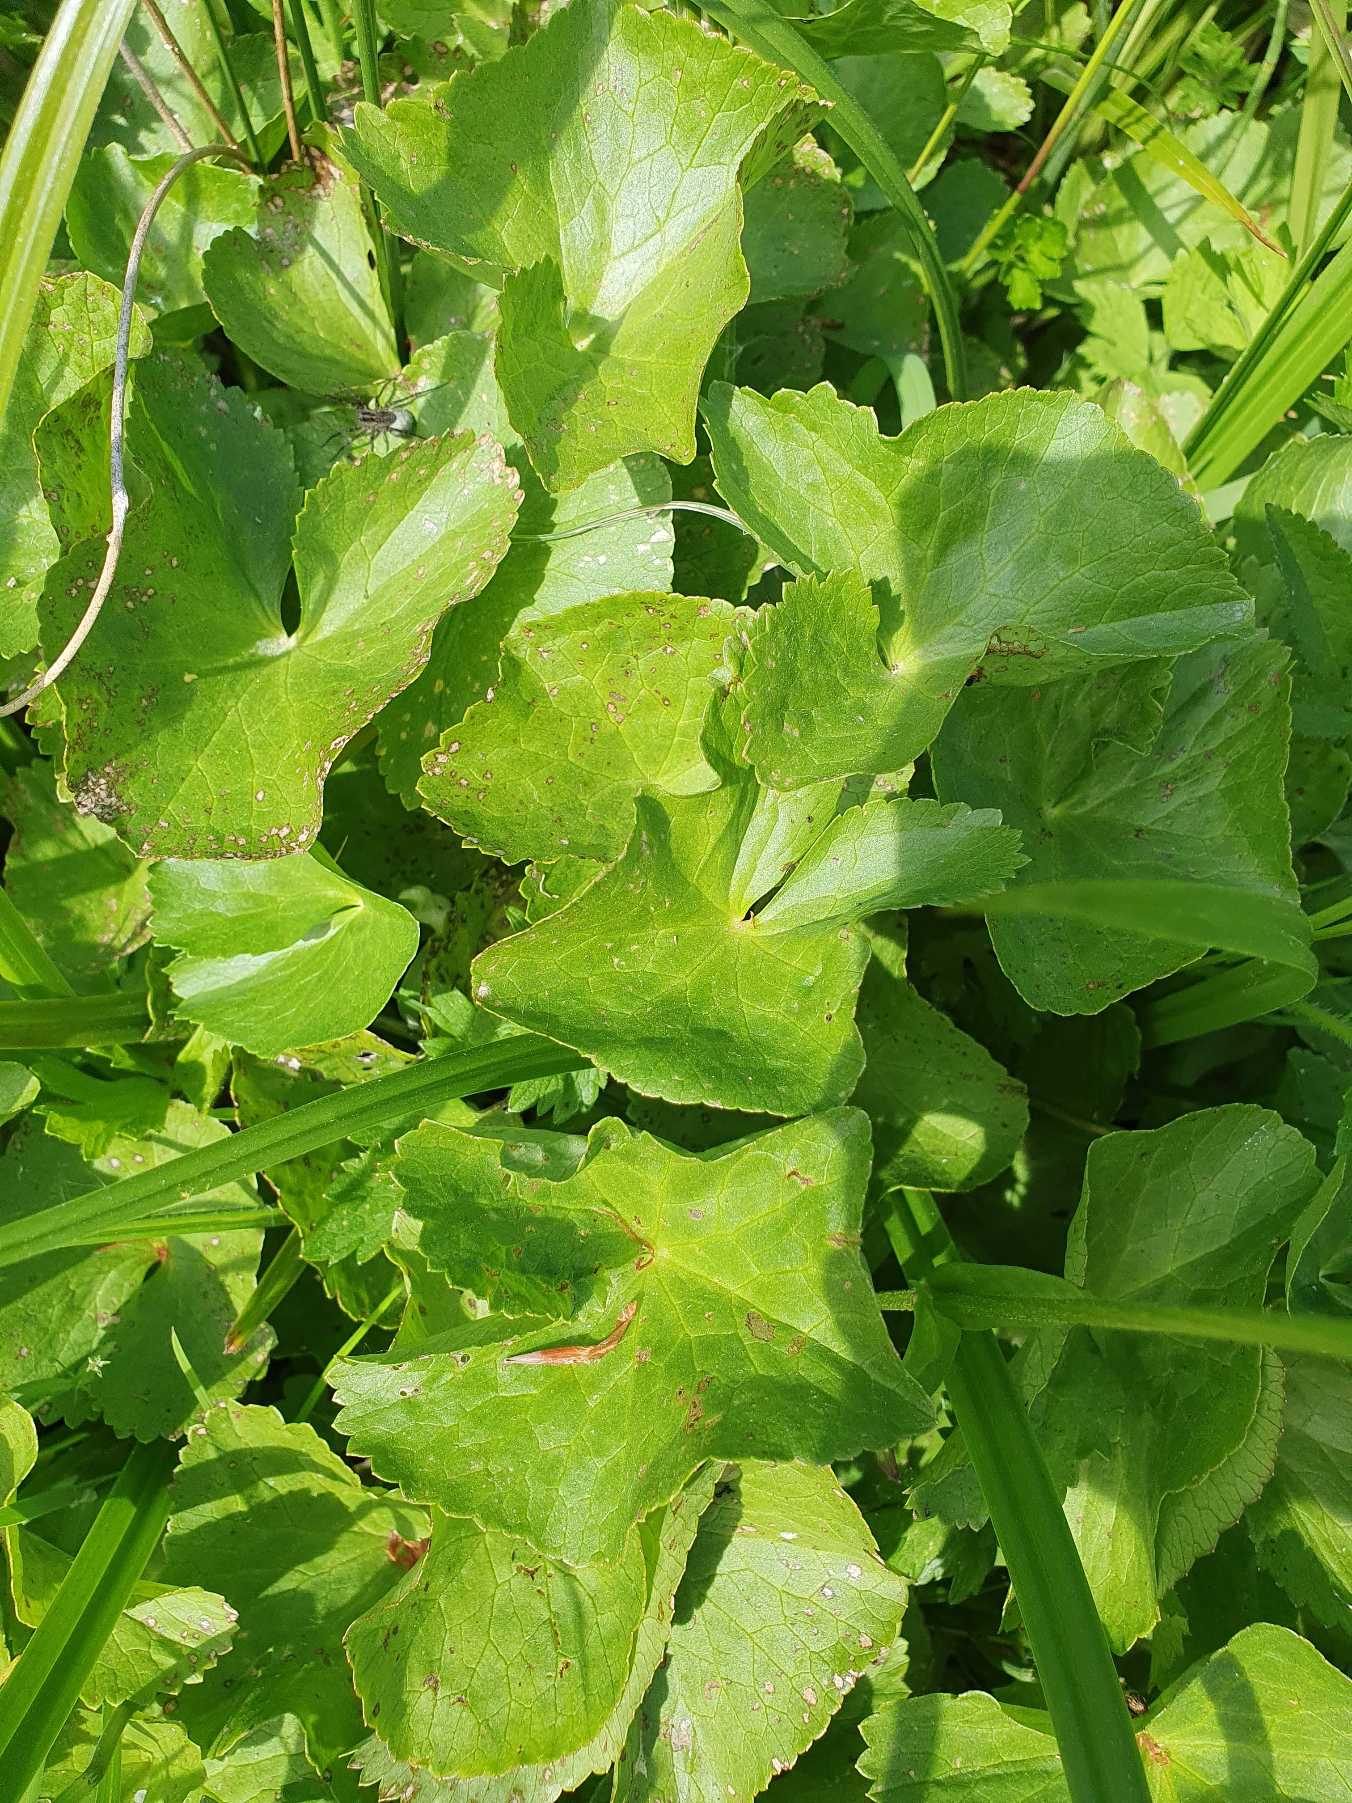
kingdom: Plantae
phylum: Tracheophyta
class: Magnoliopsida
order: Ranunculales
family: Ranunculaceae
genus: Caltha
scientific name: Caltha palustris
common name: Eng-kabbeleje
